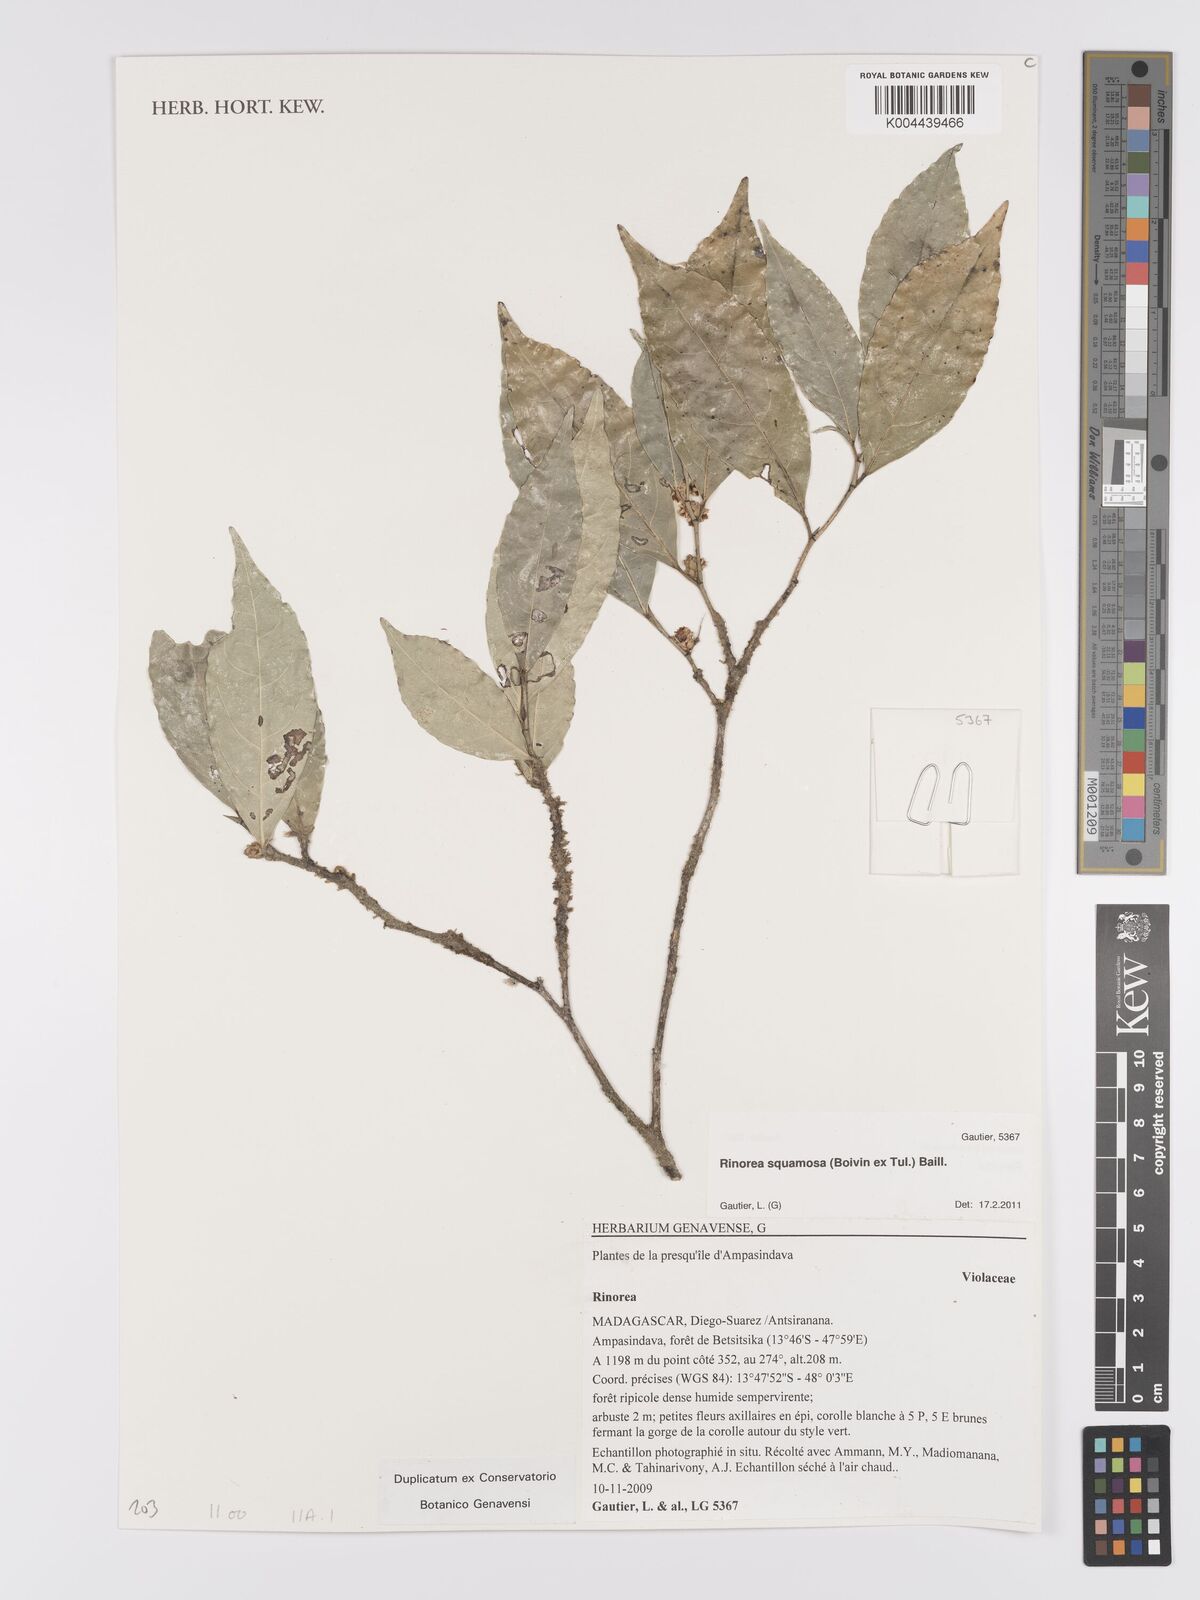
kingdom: Plantae
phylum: Tracheophyta
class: Magnoliopsida
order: Malpighiales
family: Violaceae
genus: Rinorea
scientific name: Rinorea squamosa
